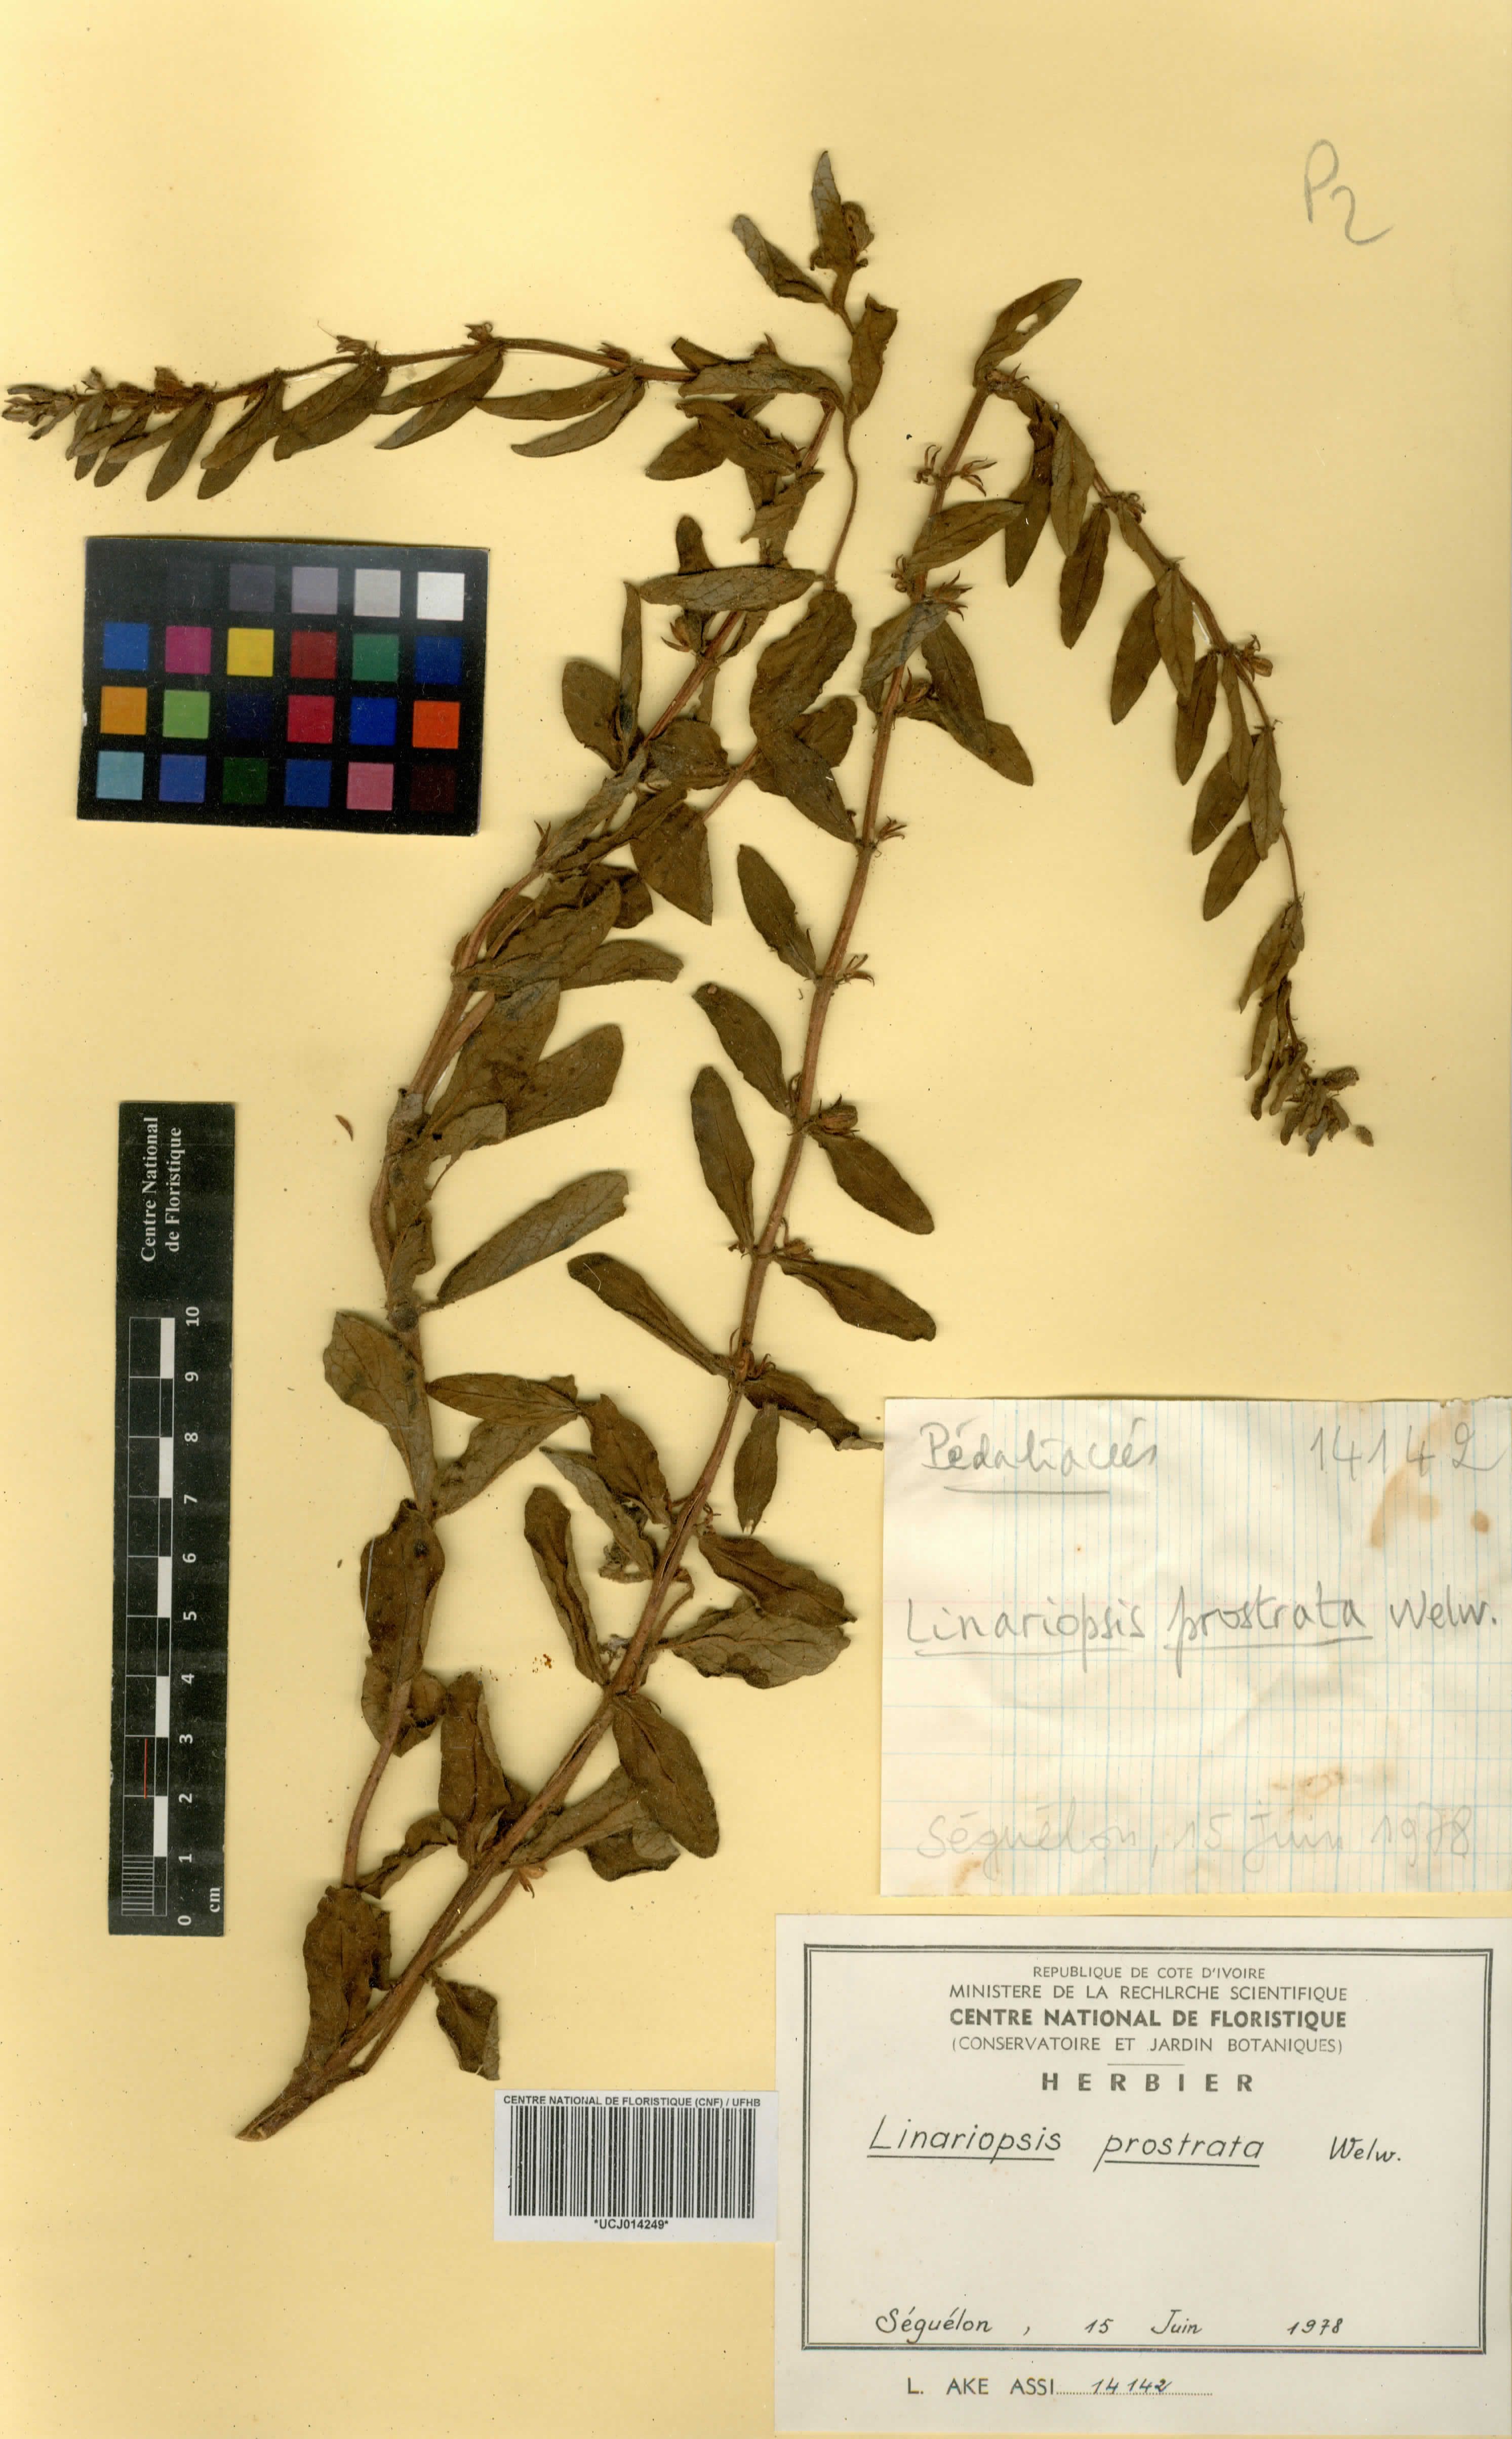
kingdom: Plantae
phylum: Tracheophyta
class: Magnoliopsida
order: Lamiales
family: Pedaliaceae
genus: Linariopsis
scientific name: Linariopsis prostrata
